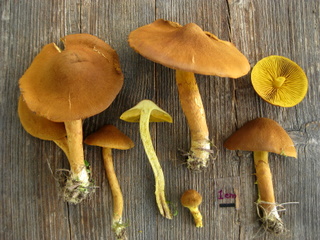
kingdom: Fungi
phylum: Basidiomycota
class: Agaricomycetes
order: Agaricales
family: Cortinariaceae
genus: Cortinarius
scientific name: Cortinarius
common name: gulbladet slørhat
